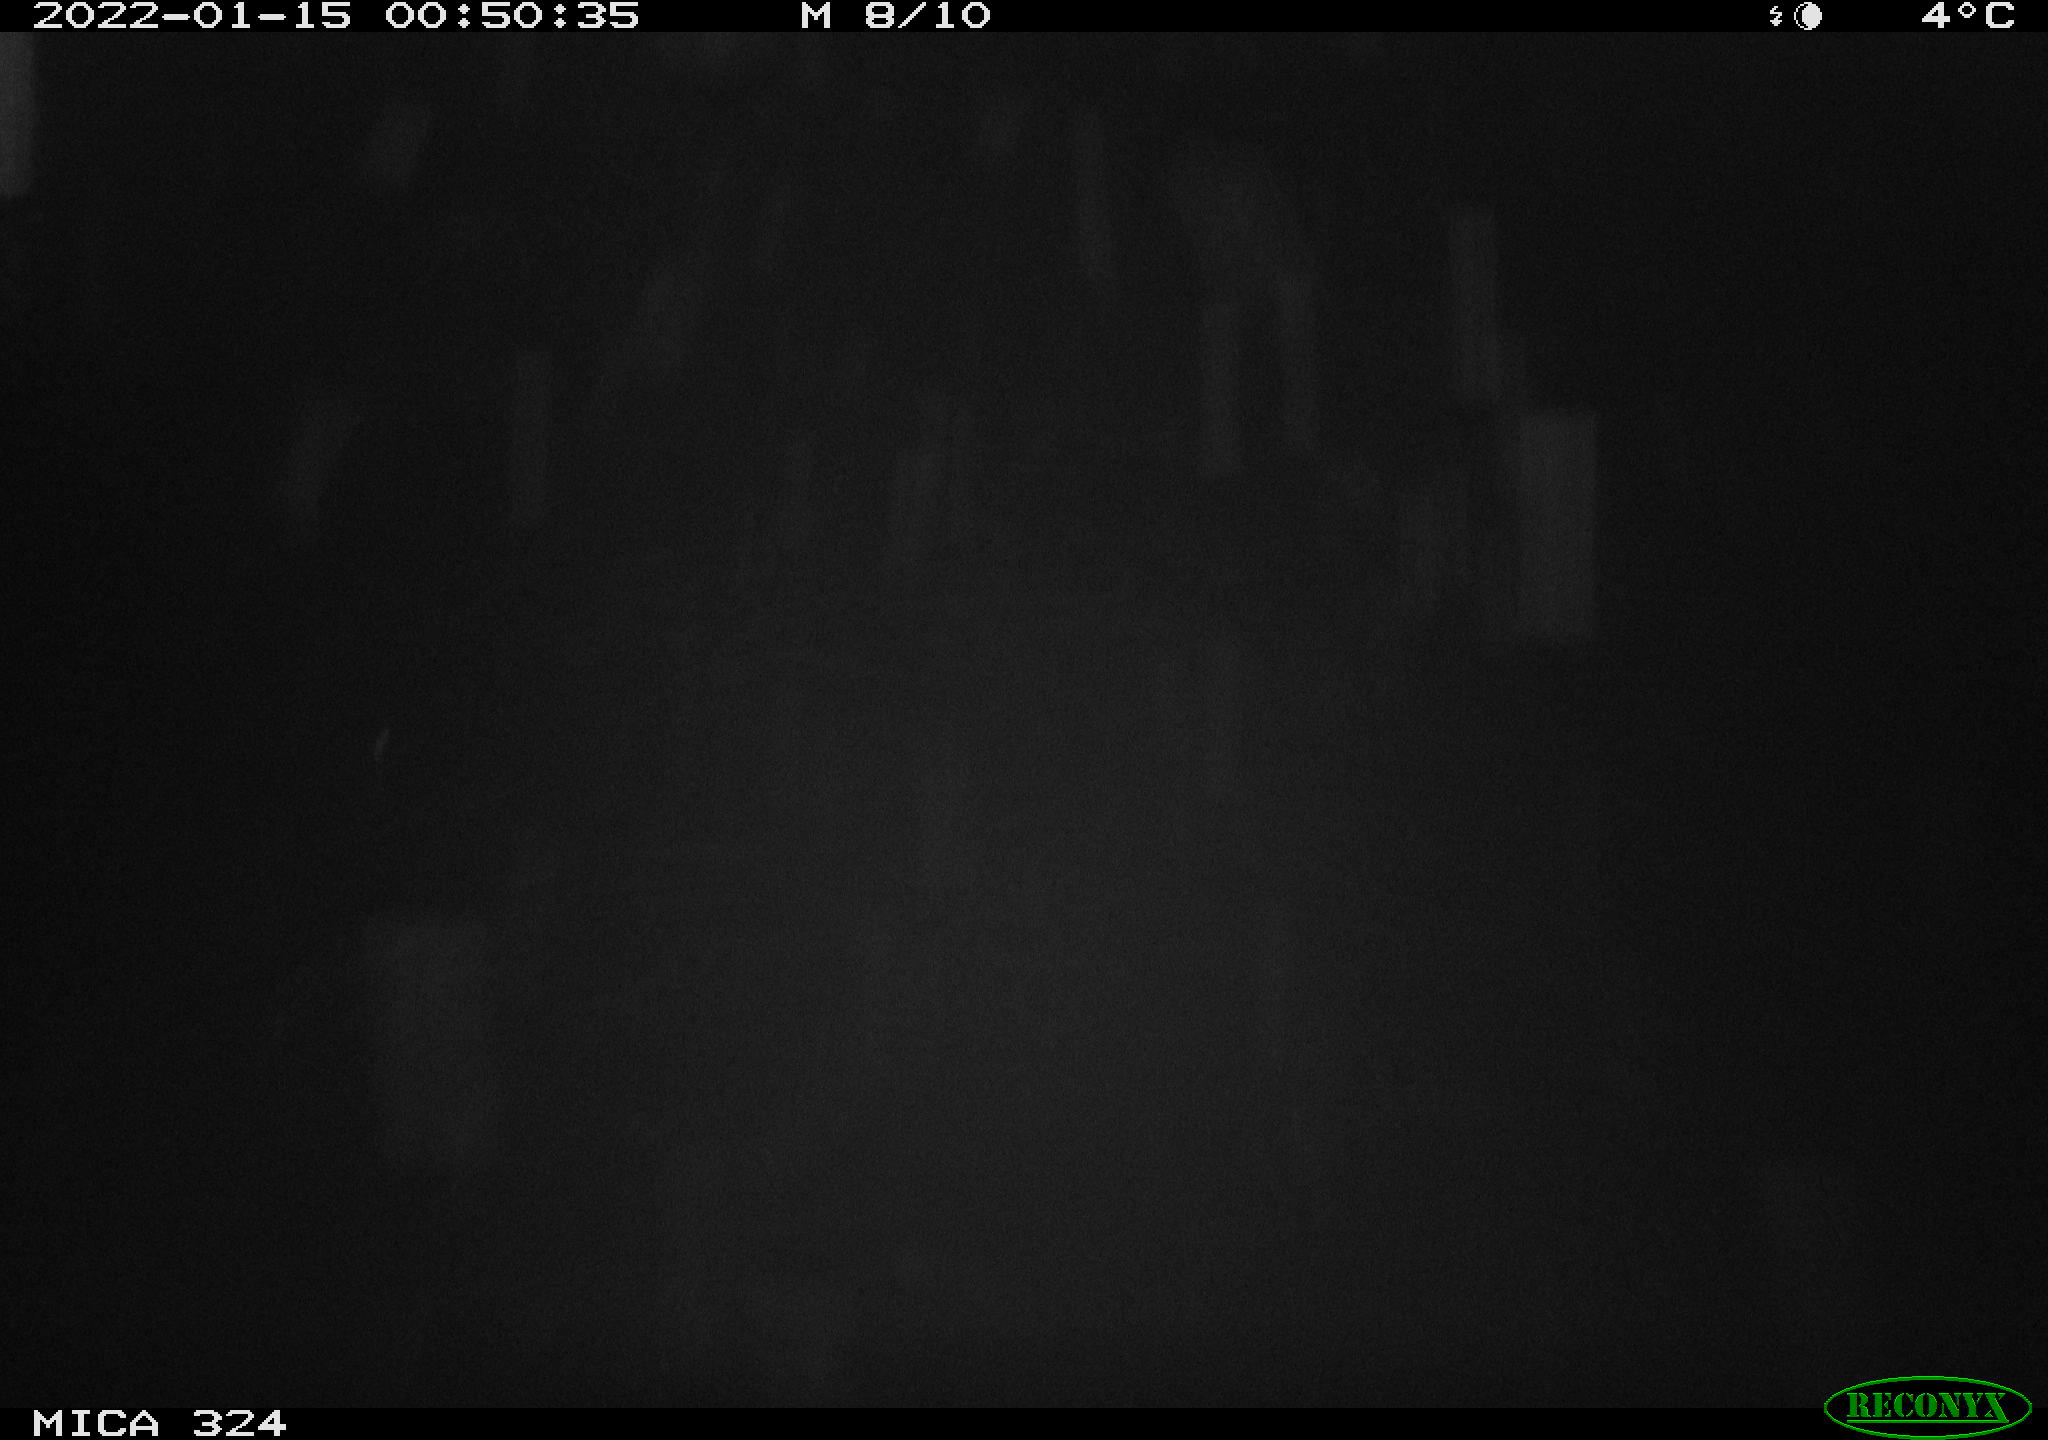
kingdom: Animalia
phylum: Chordata
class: Mammalia
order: Rodentia
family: Cricetidae
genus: Ondatra
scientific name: Ondatra zibethicus
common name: Muskrat
